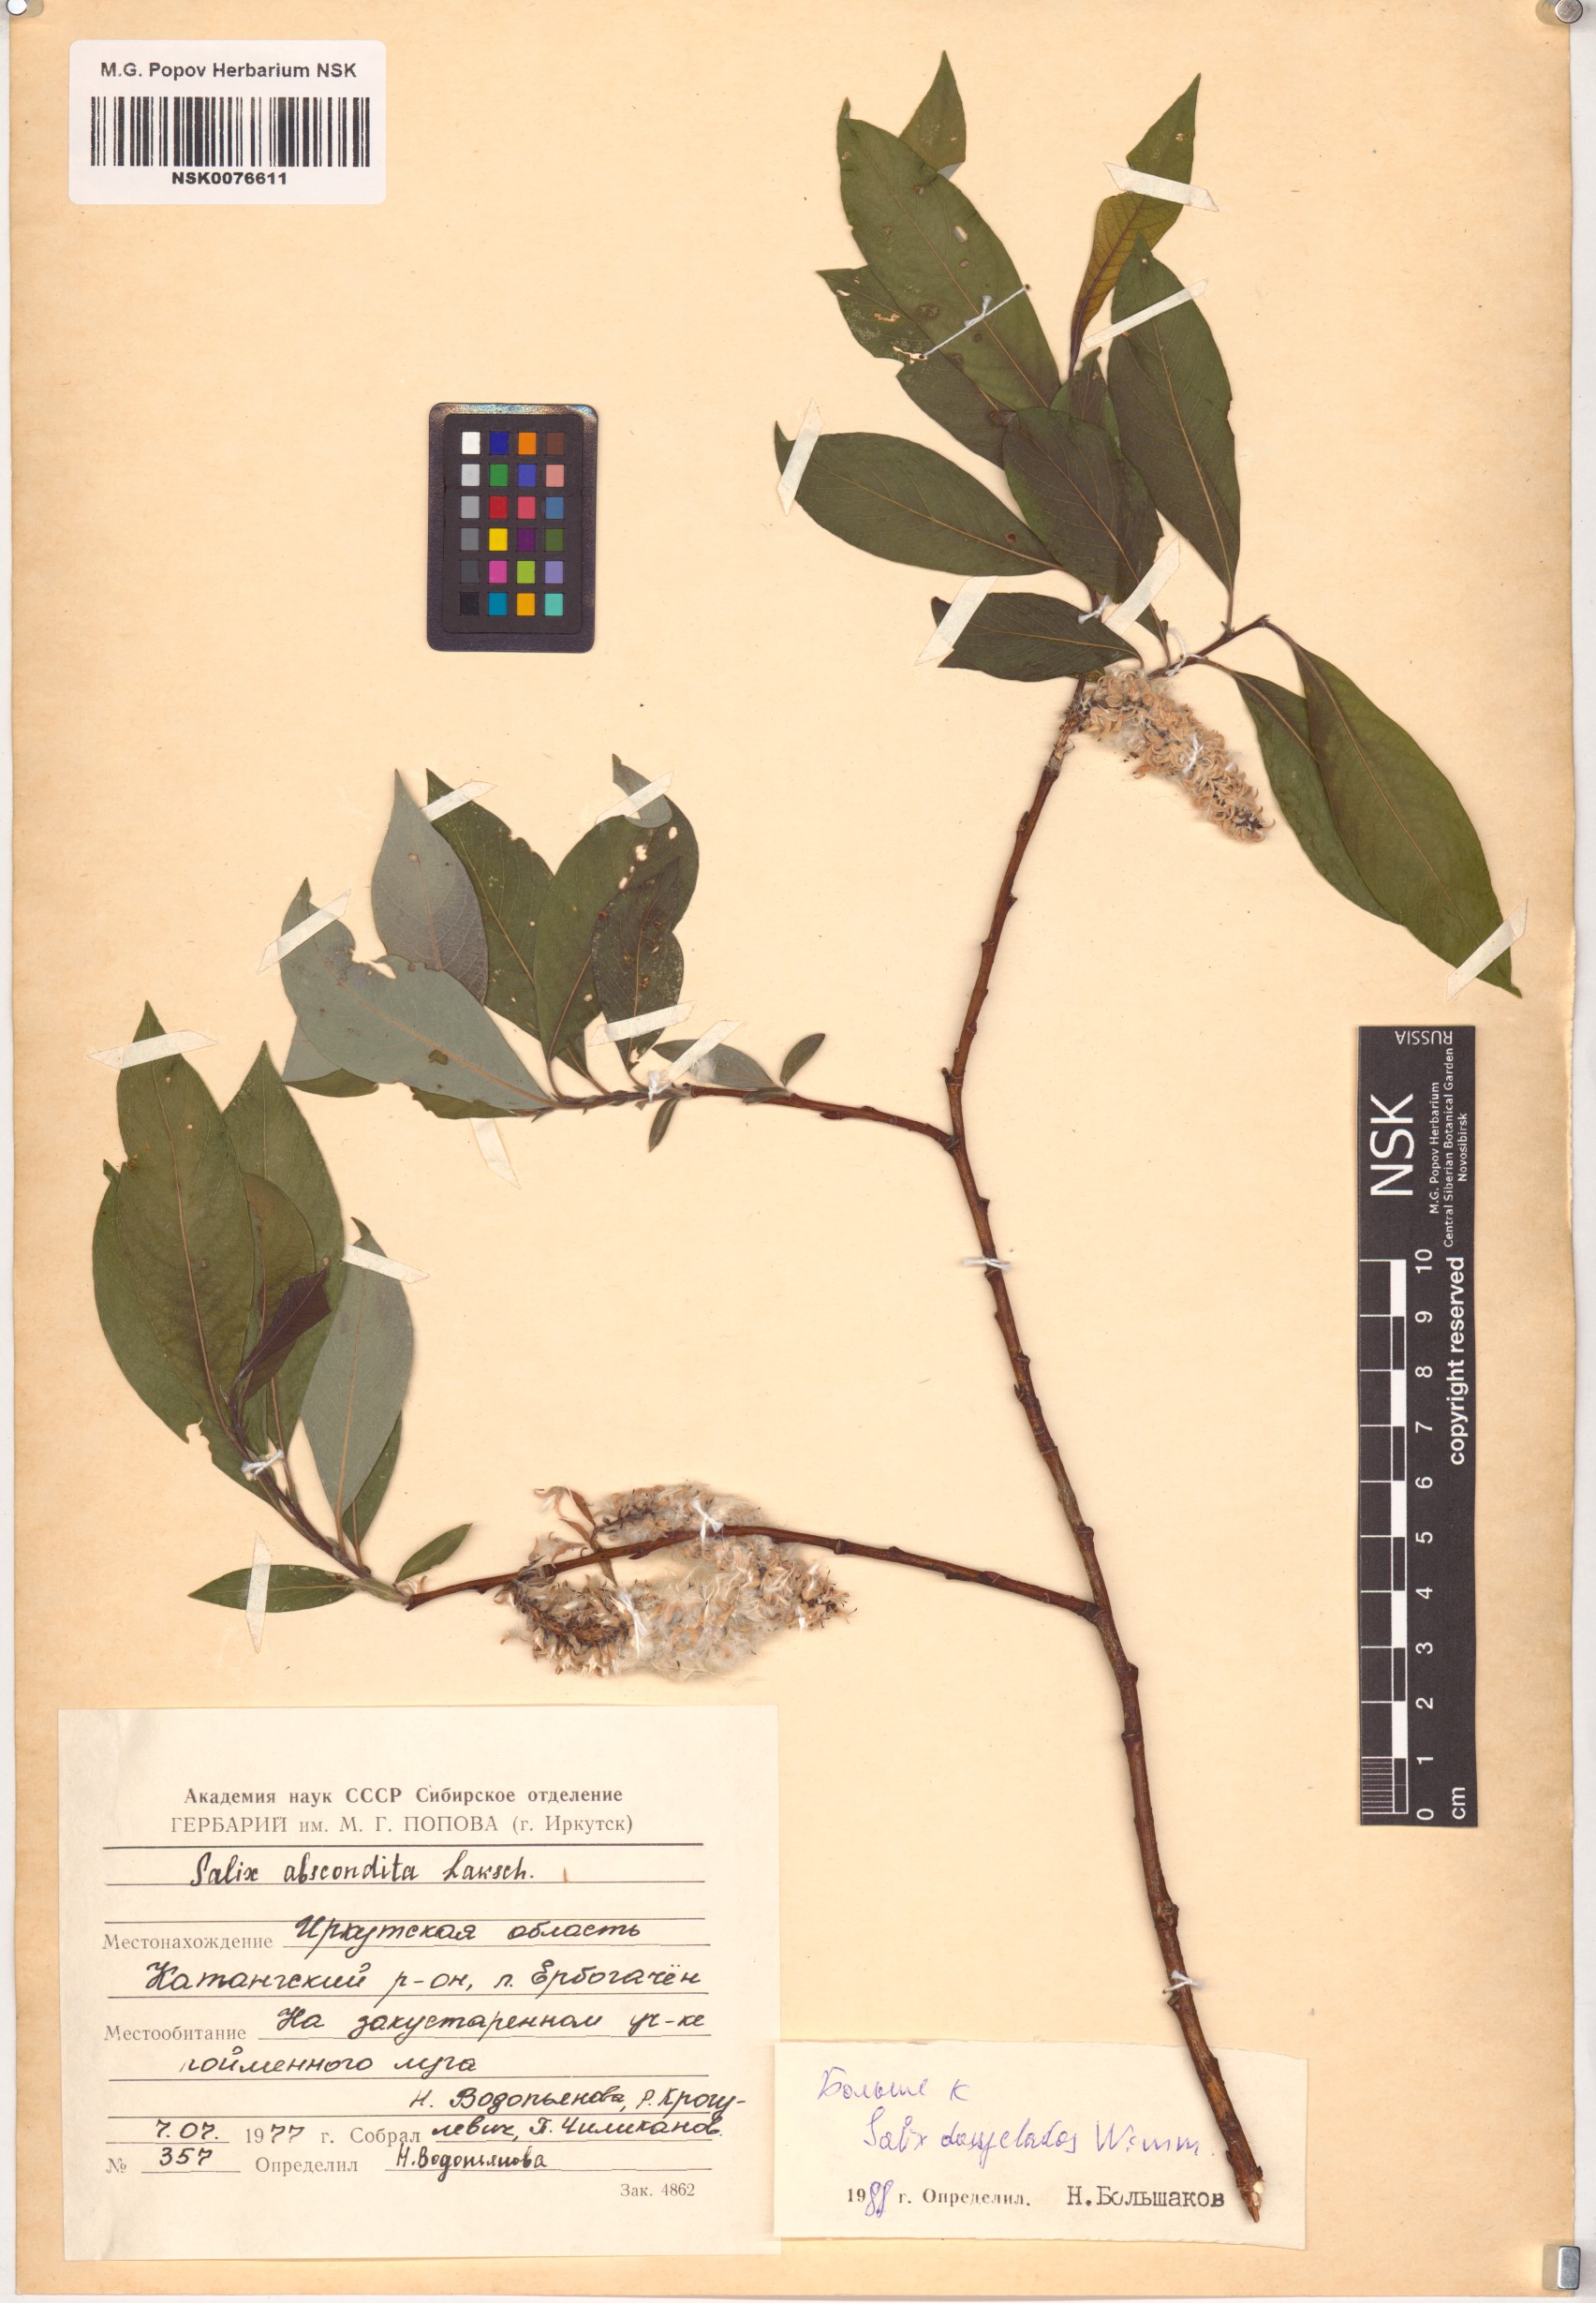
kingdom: Plantae
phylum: Tracheophyta
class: Magnoliopsida
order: Malpighiales
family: Salicaceae
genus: Salix
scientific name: Salix abscondita
